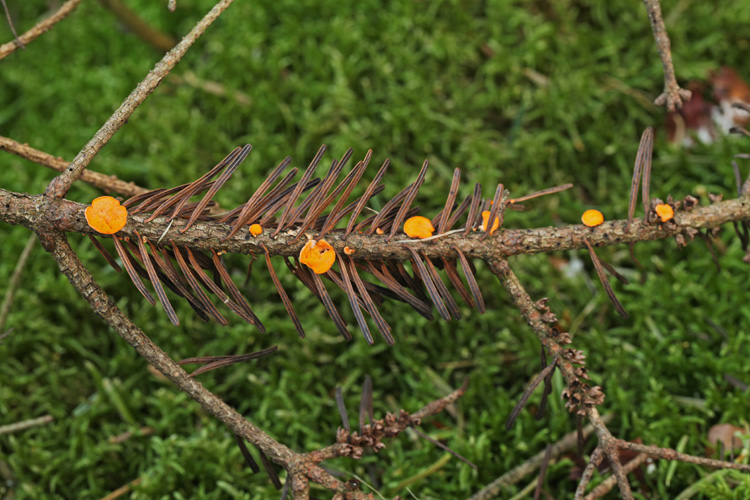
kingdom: Fungi
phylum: Ascomycota
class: Pezizomycetes
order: Pezizales
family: Sarcoscyphaceae
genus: Pithya
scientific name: Pithya vulgaris
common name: stor dukatbæger
